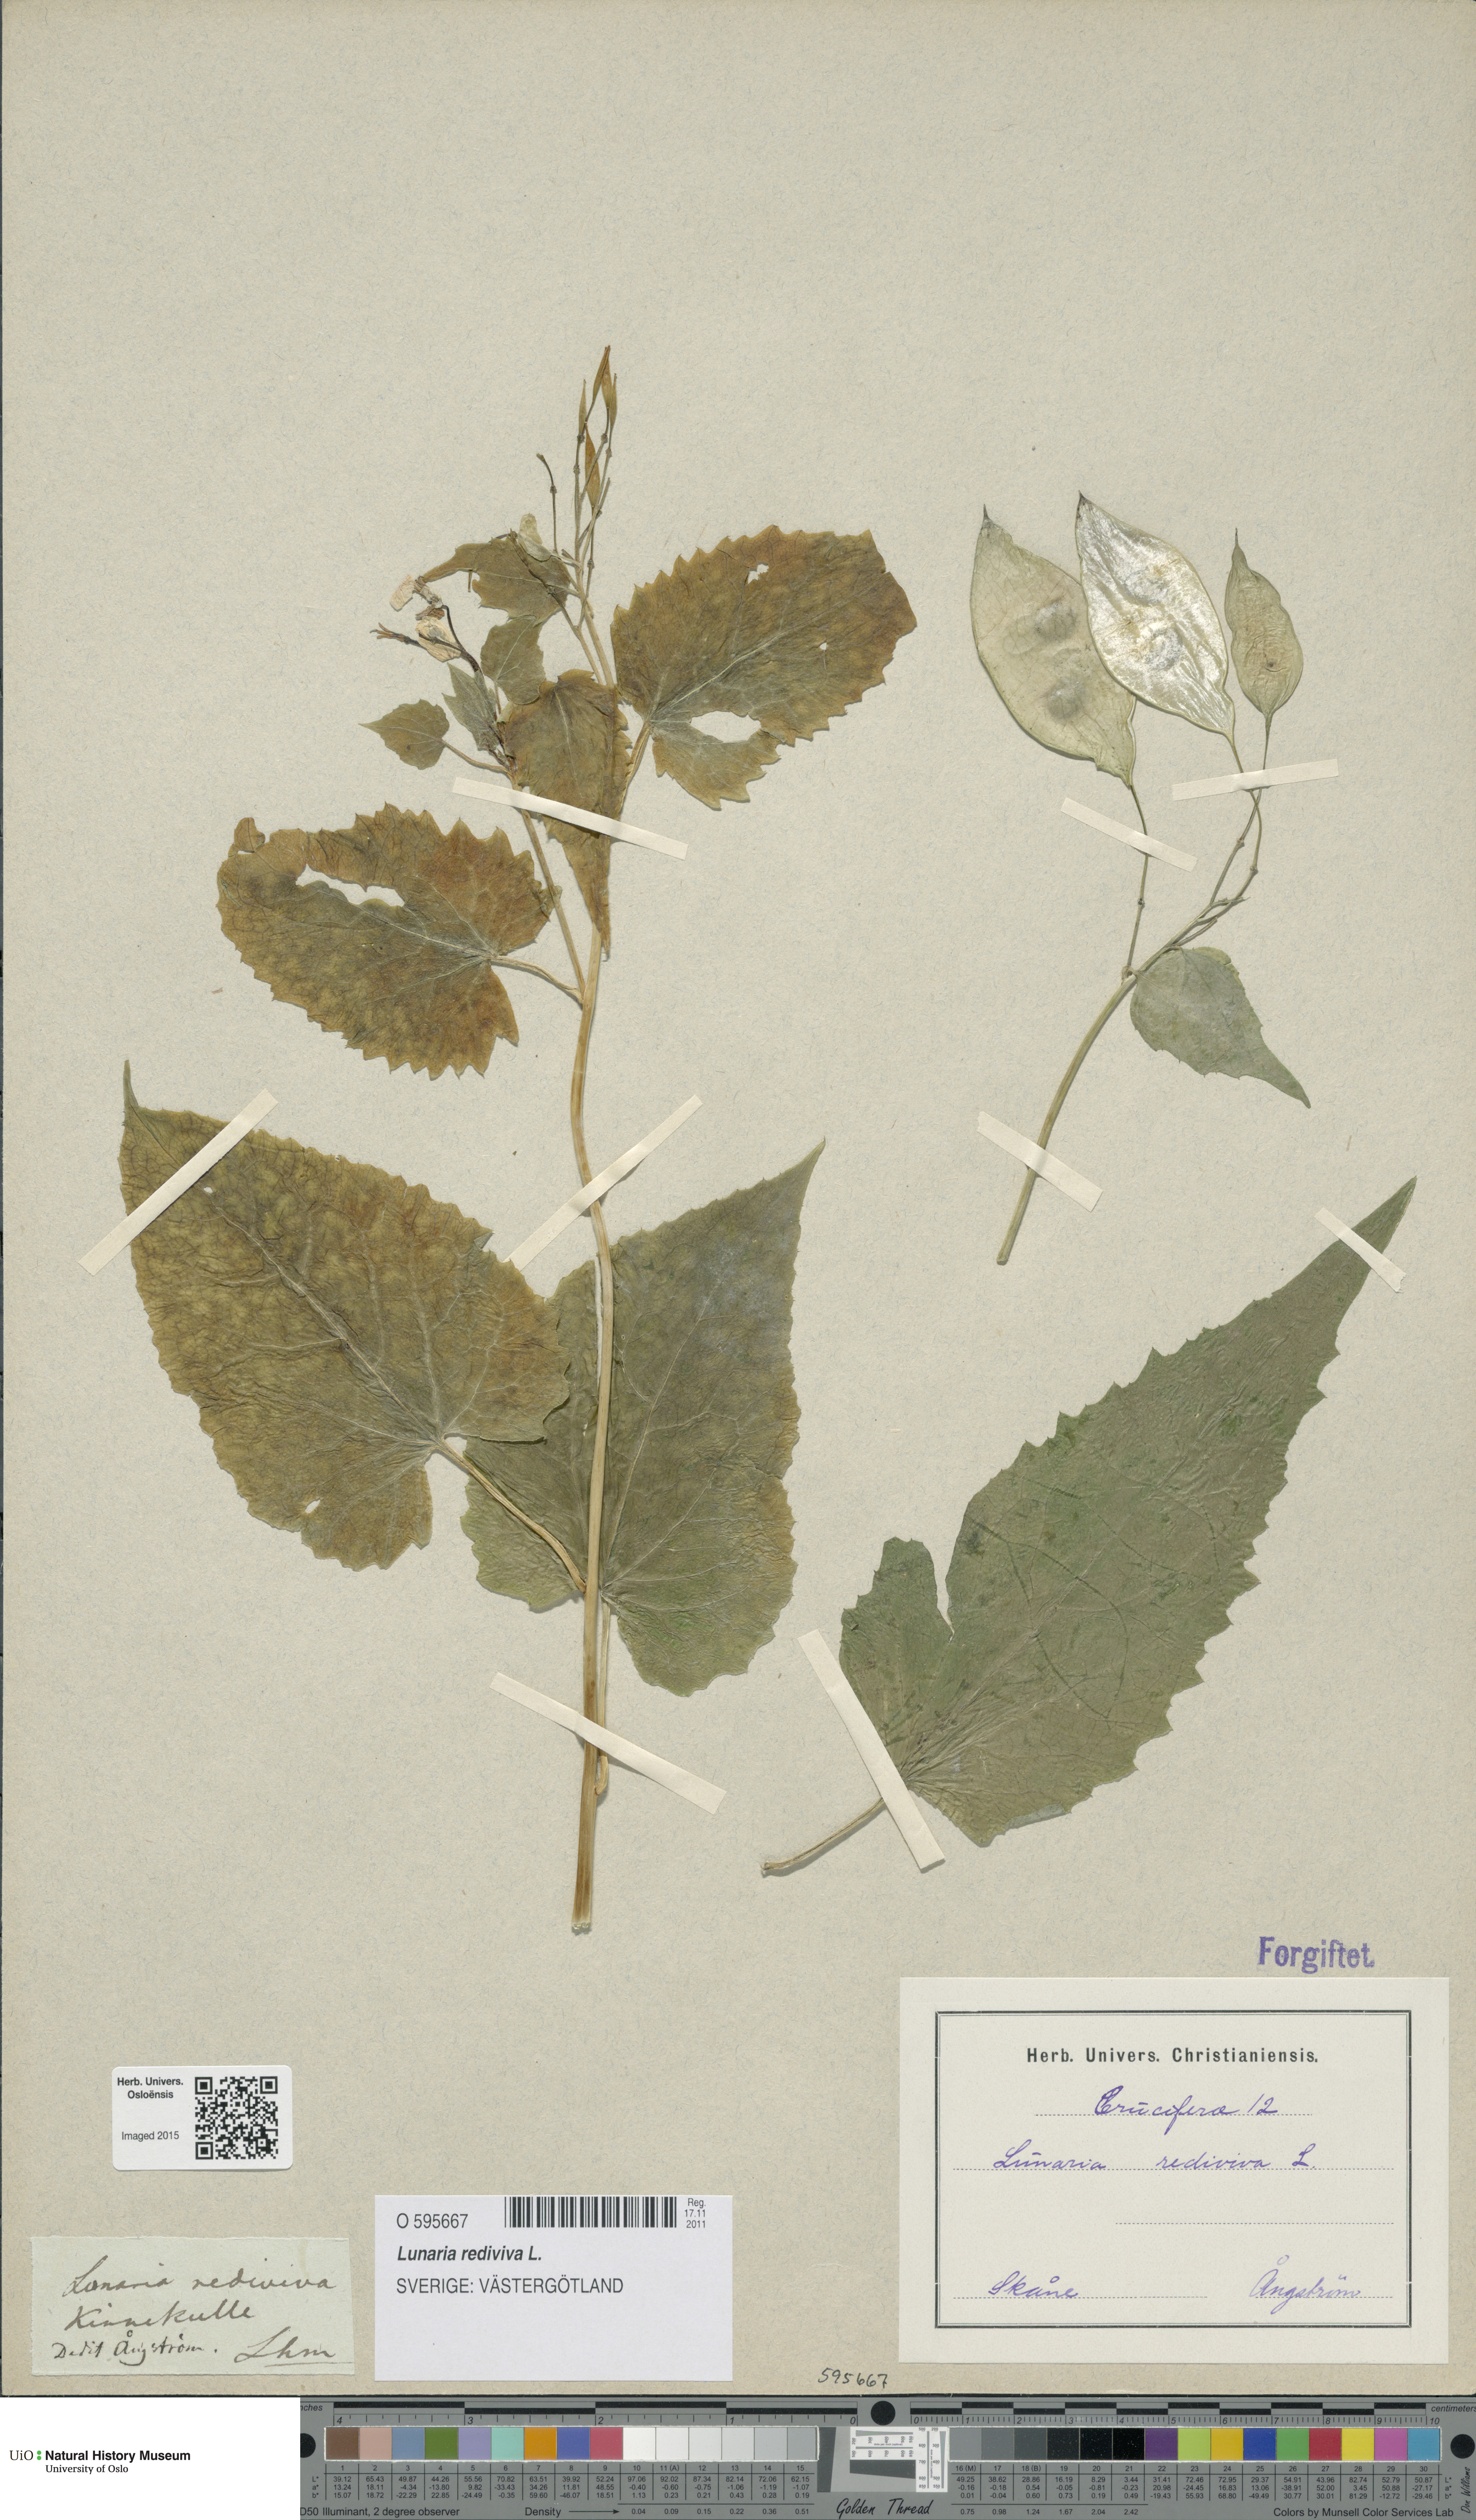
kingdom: Plantae
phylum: Tracheophyta
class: Magnoliopsida
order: Brassicales
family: Brassicaceae
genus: Lunaria
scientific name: Lunaria rediviva
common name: Perennial honesty
